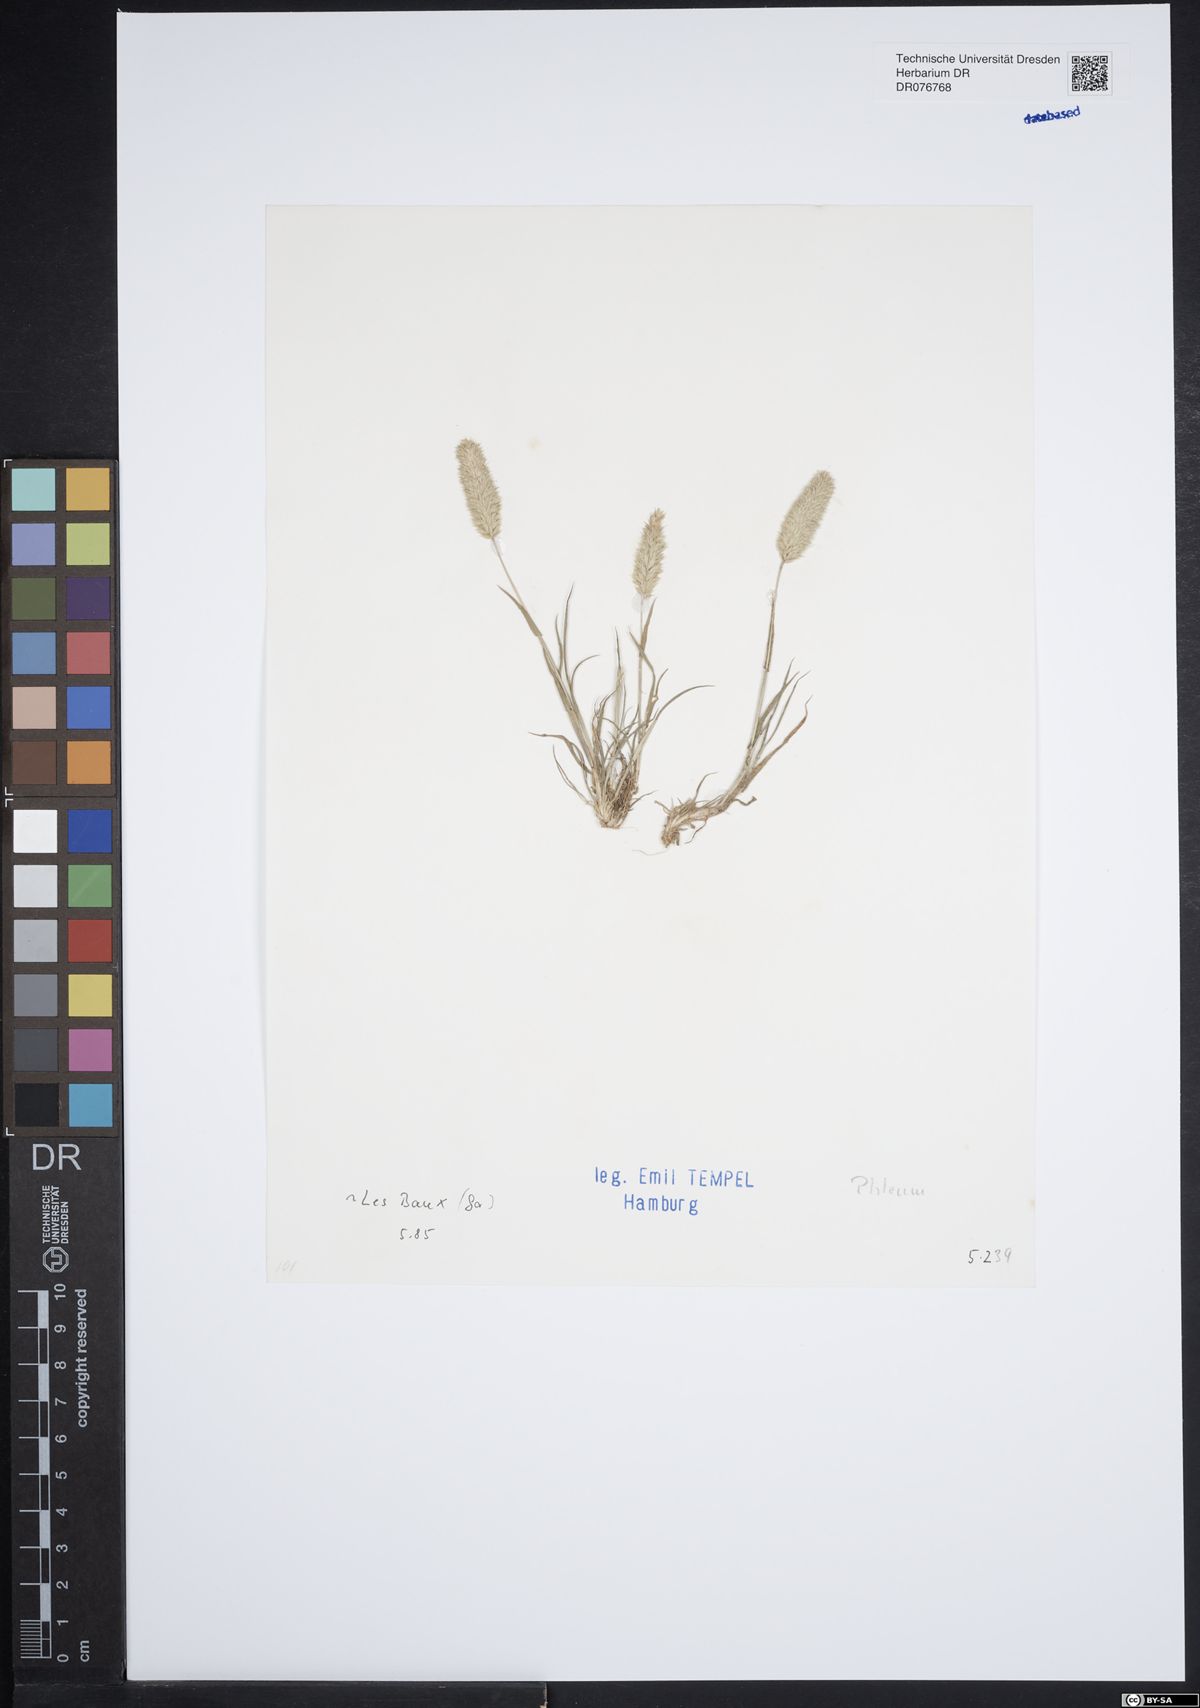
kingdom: Plantae
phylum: Tracheophyta
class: Liliopsida
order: Poales
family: Poaceae
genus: Phleum
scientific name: Phleum
